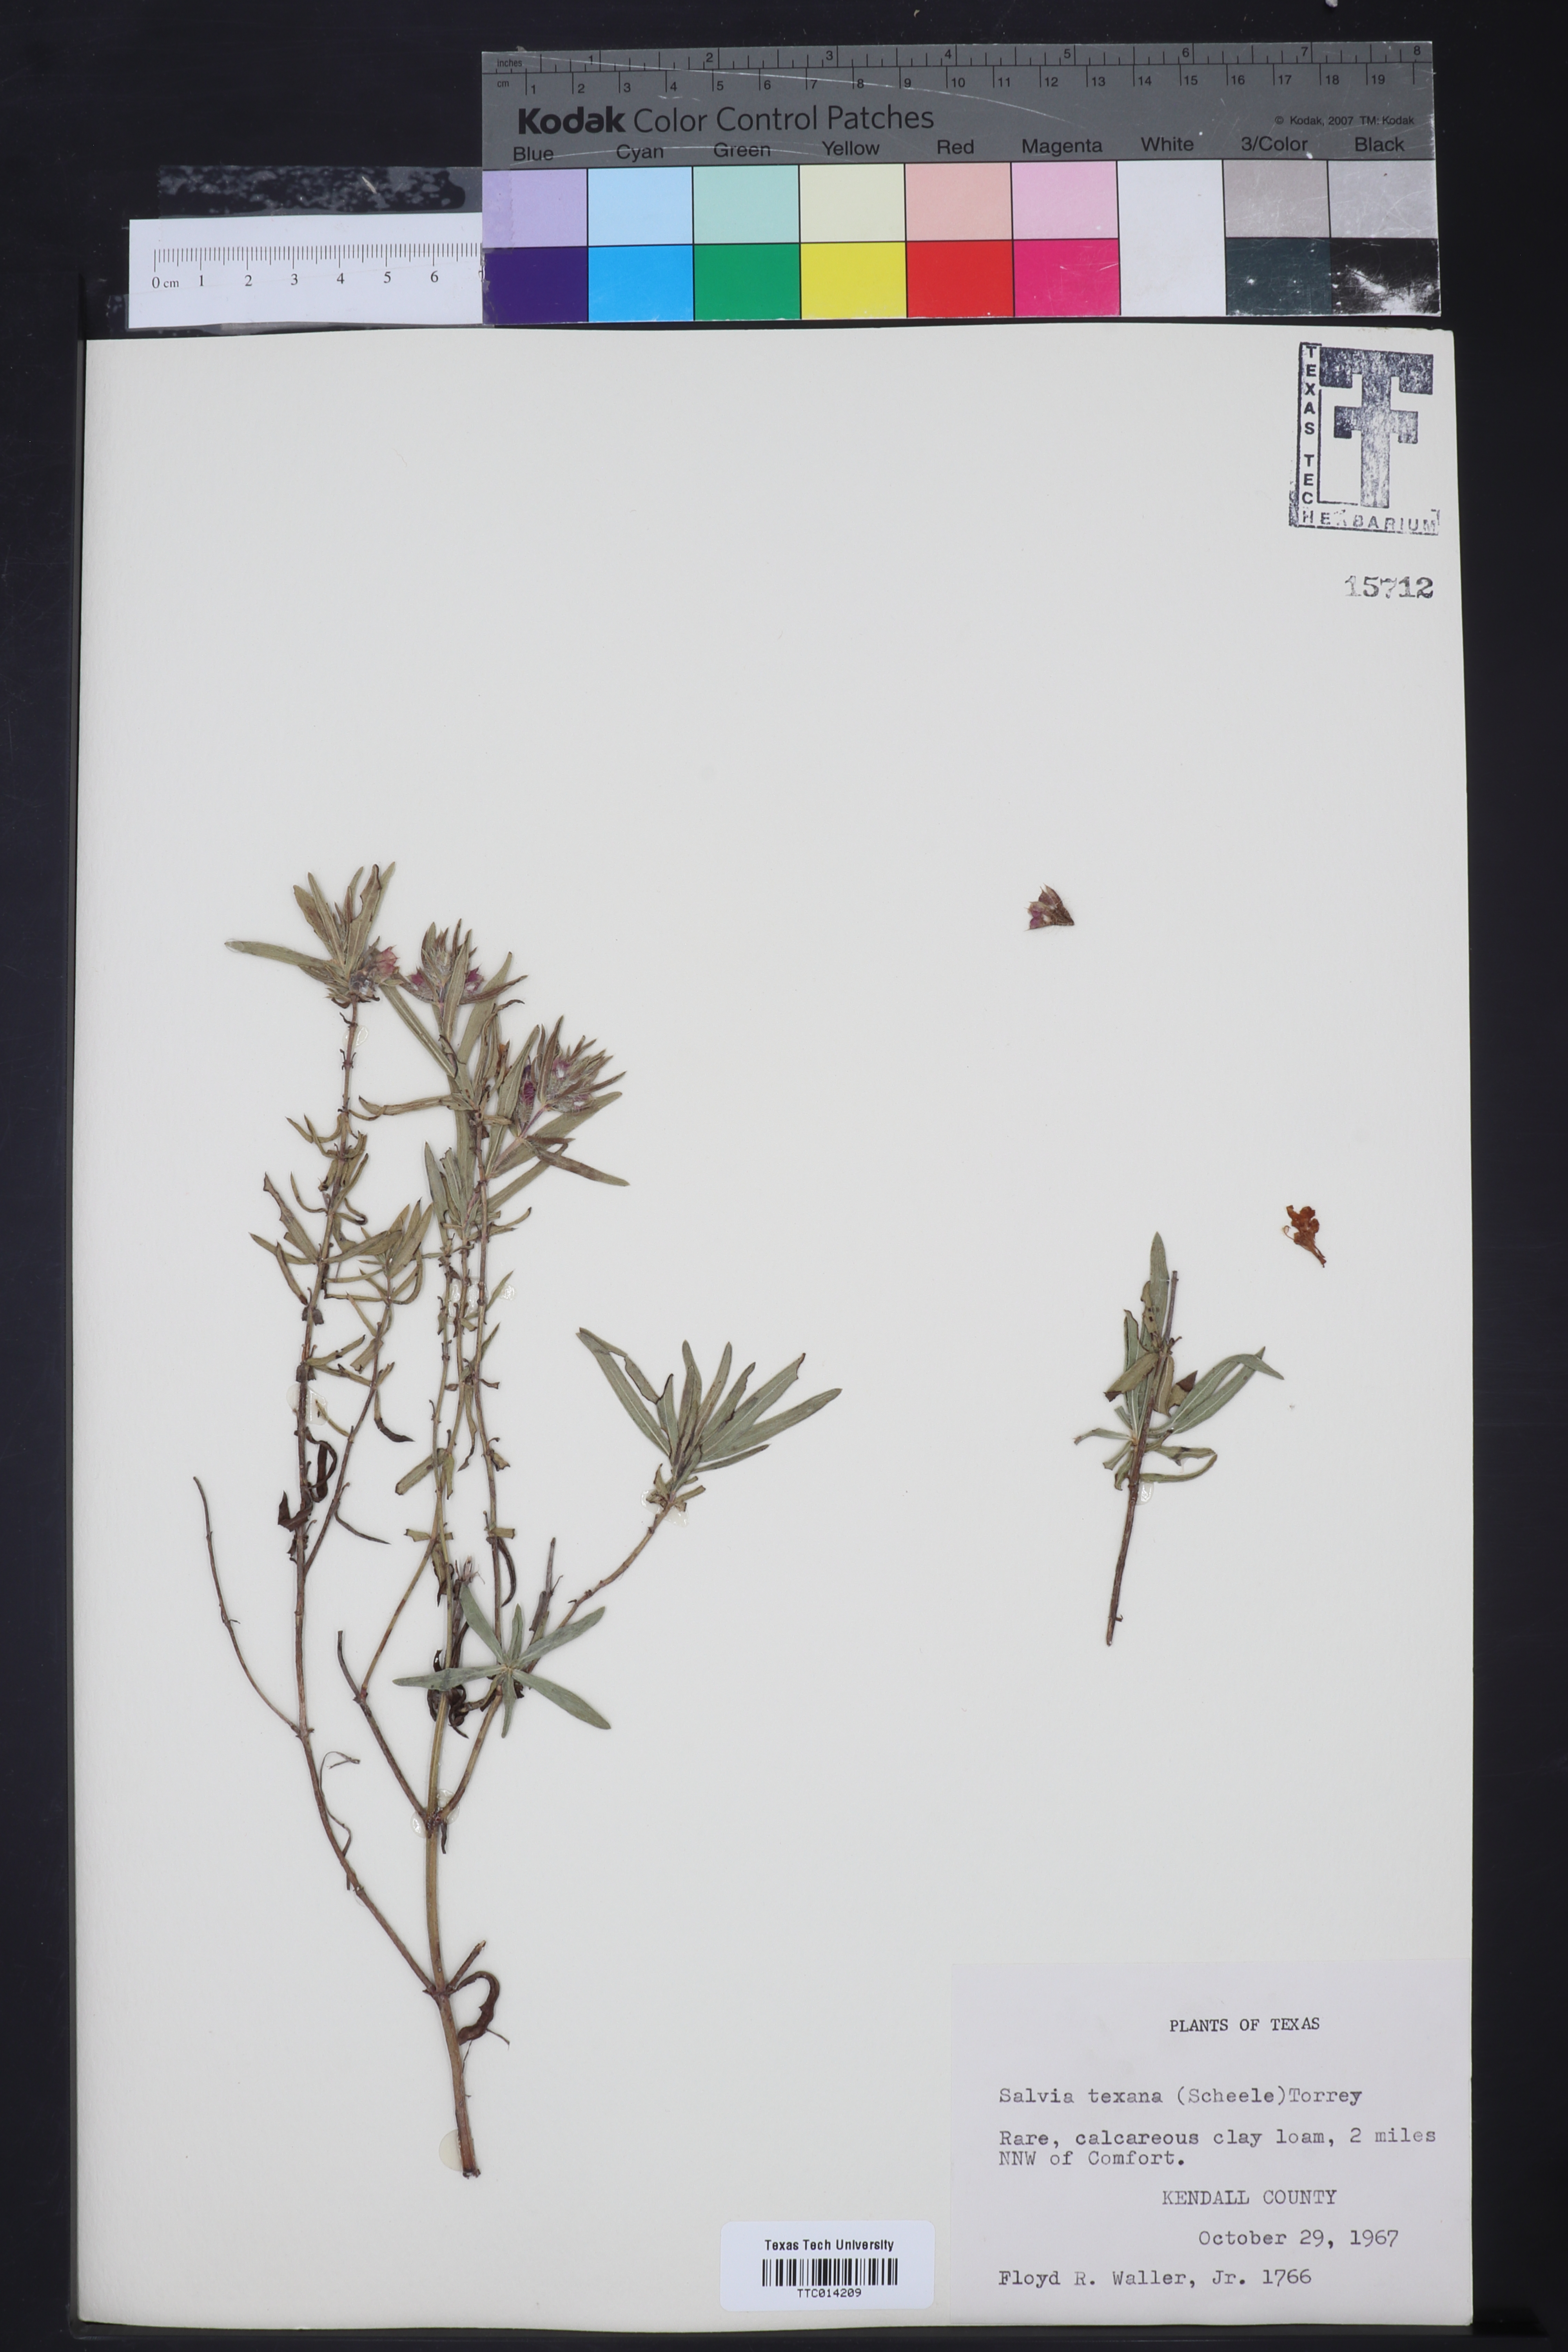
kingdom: Plantae
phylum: Tracheophyta
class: Magnoliopsida
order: Lamiales
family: Lamiaceae
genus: Salvia
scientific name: Salvia texana
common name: Texas sage
